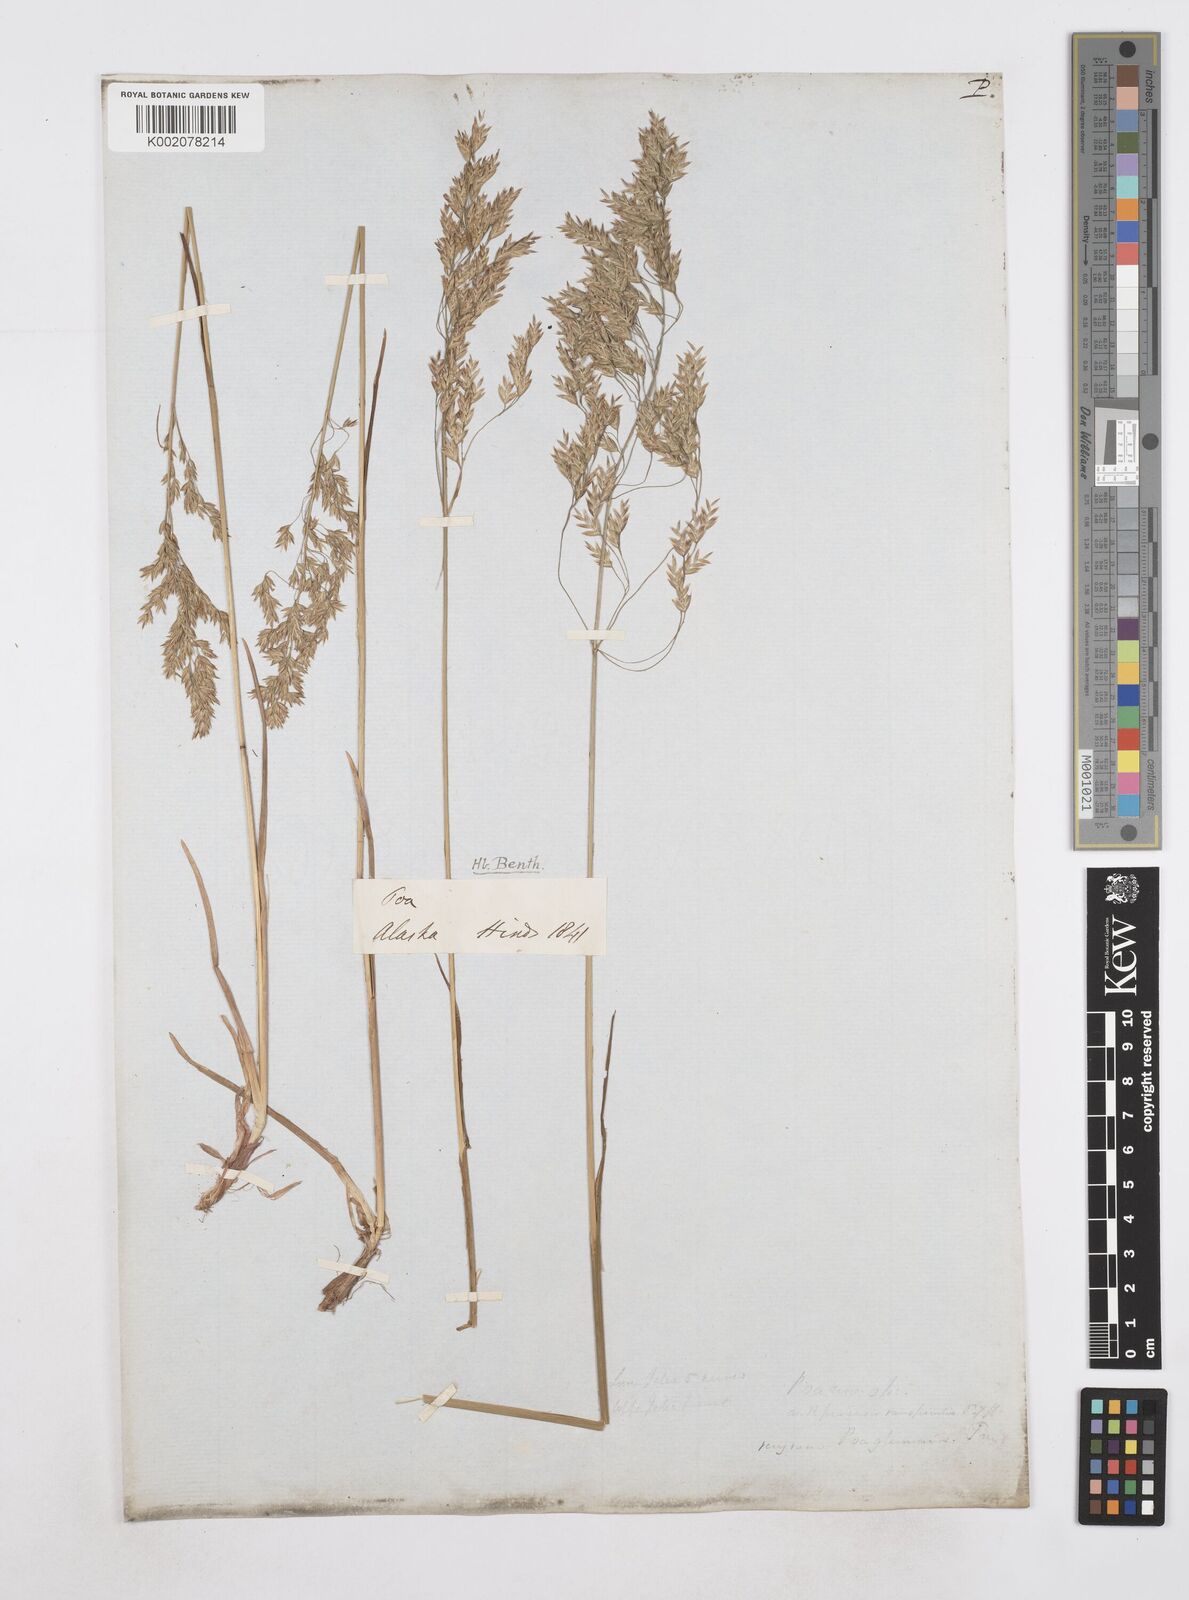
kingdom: Plantae
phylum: Tracheophyta
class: Liliopsida
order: Poales
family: Poaceae
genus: Poa
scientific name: Poa
